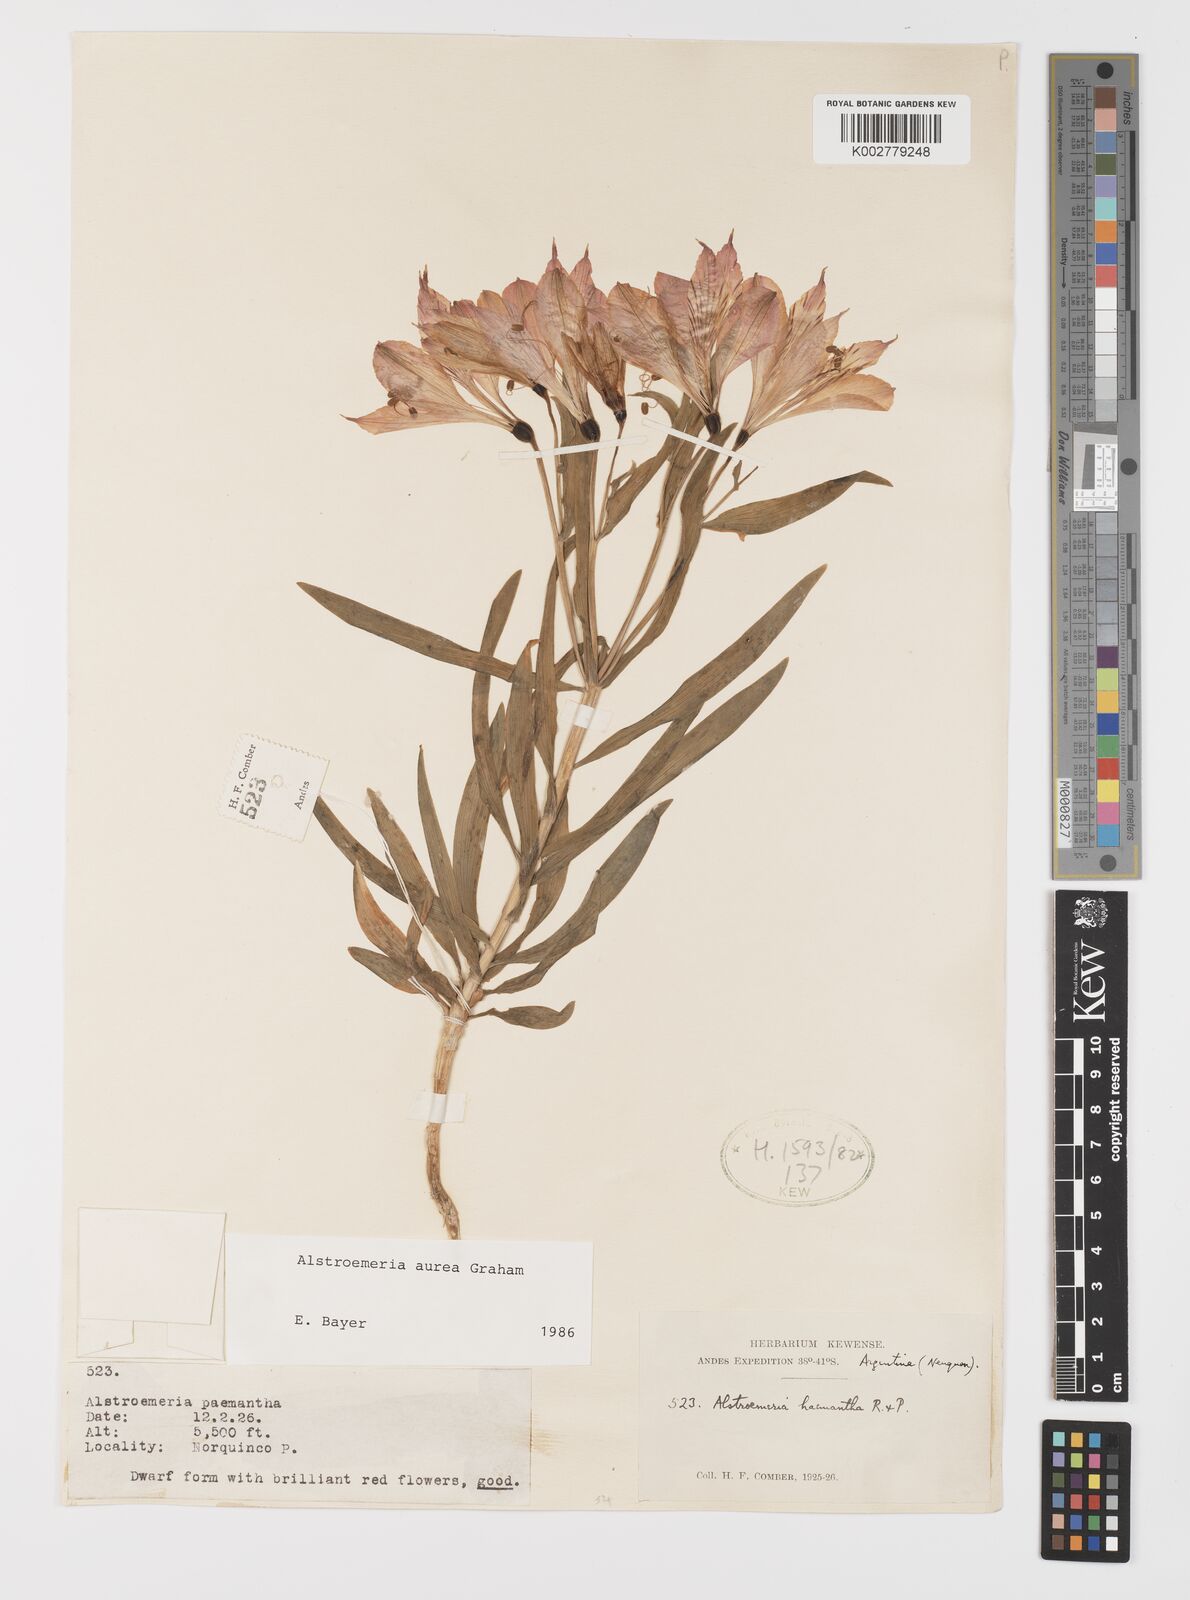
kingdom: Plantae
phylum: Tracheophyta
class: Liliopsida
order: Liliales
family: Alstroemeriaceae
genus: Alstroemeria
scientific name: Alstroemeria aurea
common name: Peruvian lily
